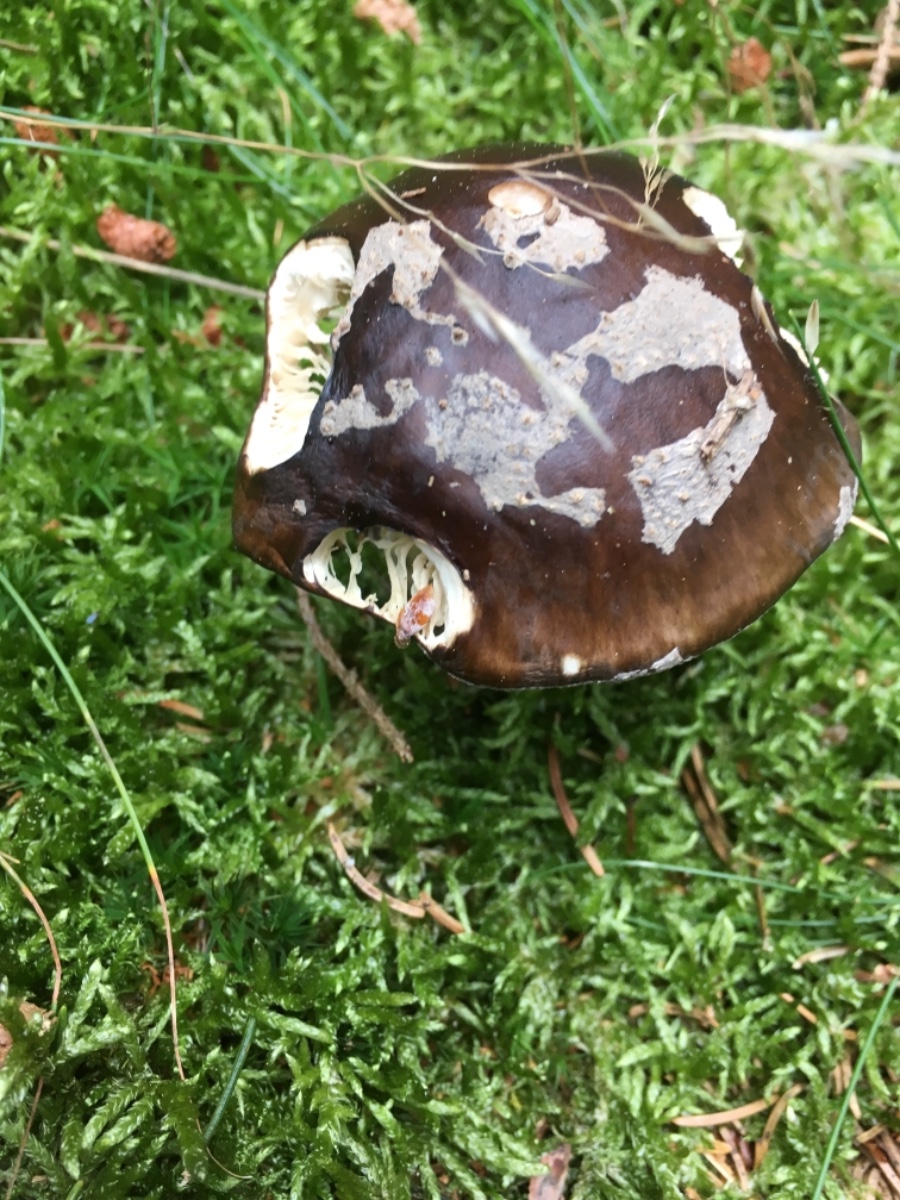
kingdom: Fungi
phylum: Basidiomycota
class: Agaricomycetes
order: Agaricales
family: Amanitaceae
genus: Amanita
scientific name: Amanita
